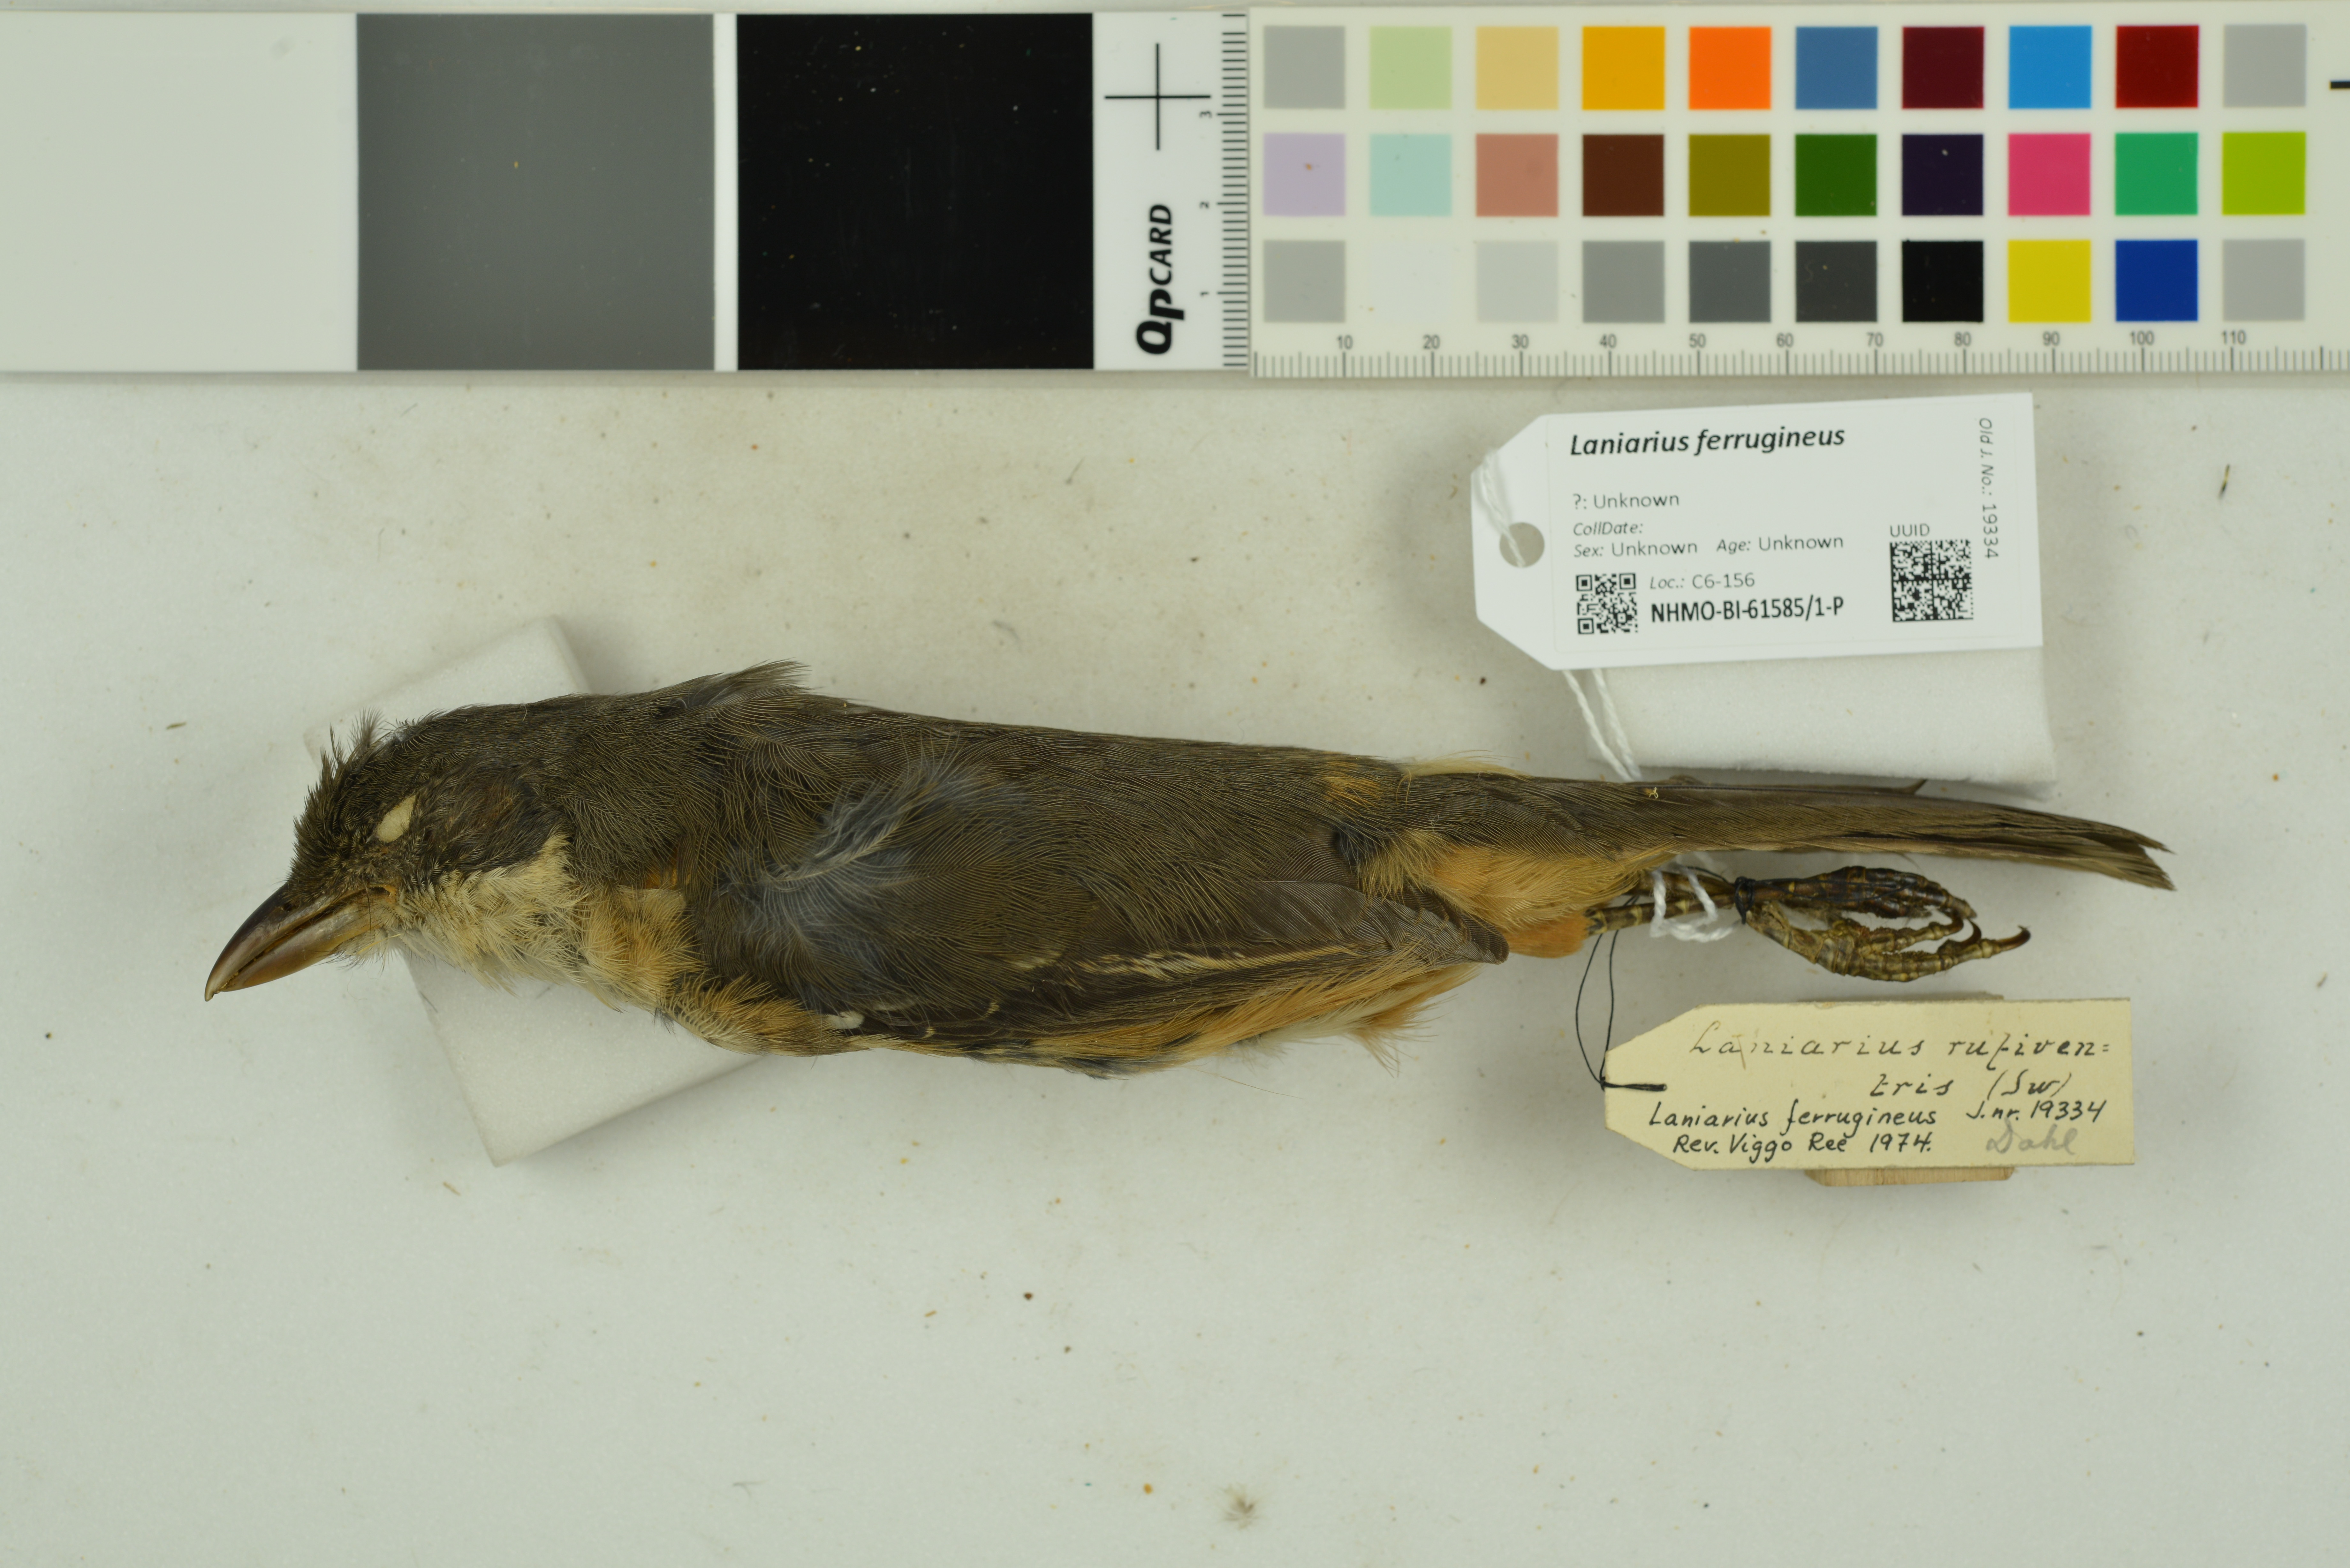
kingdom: Animalia
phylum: Chordata
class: Aves
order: Passeriformes
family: Malaconotidae
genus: Laniarius
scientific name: Laniarius ferrugineus
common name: Southern boubou
